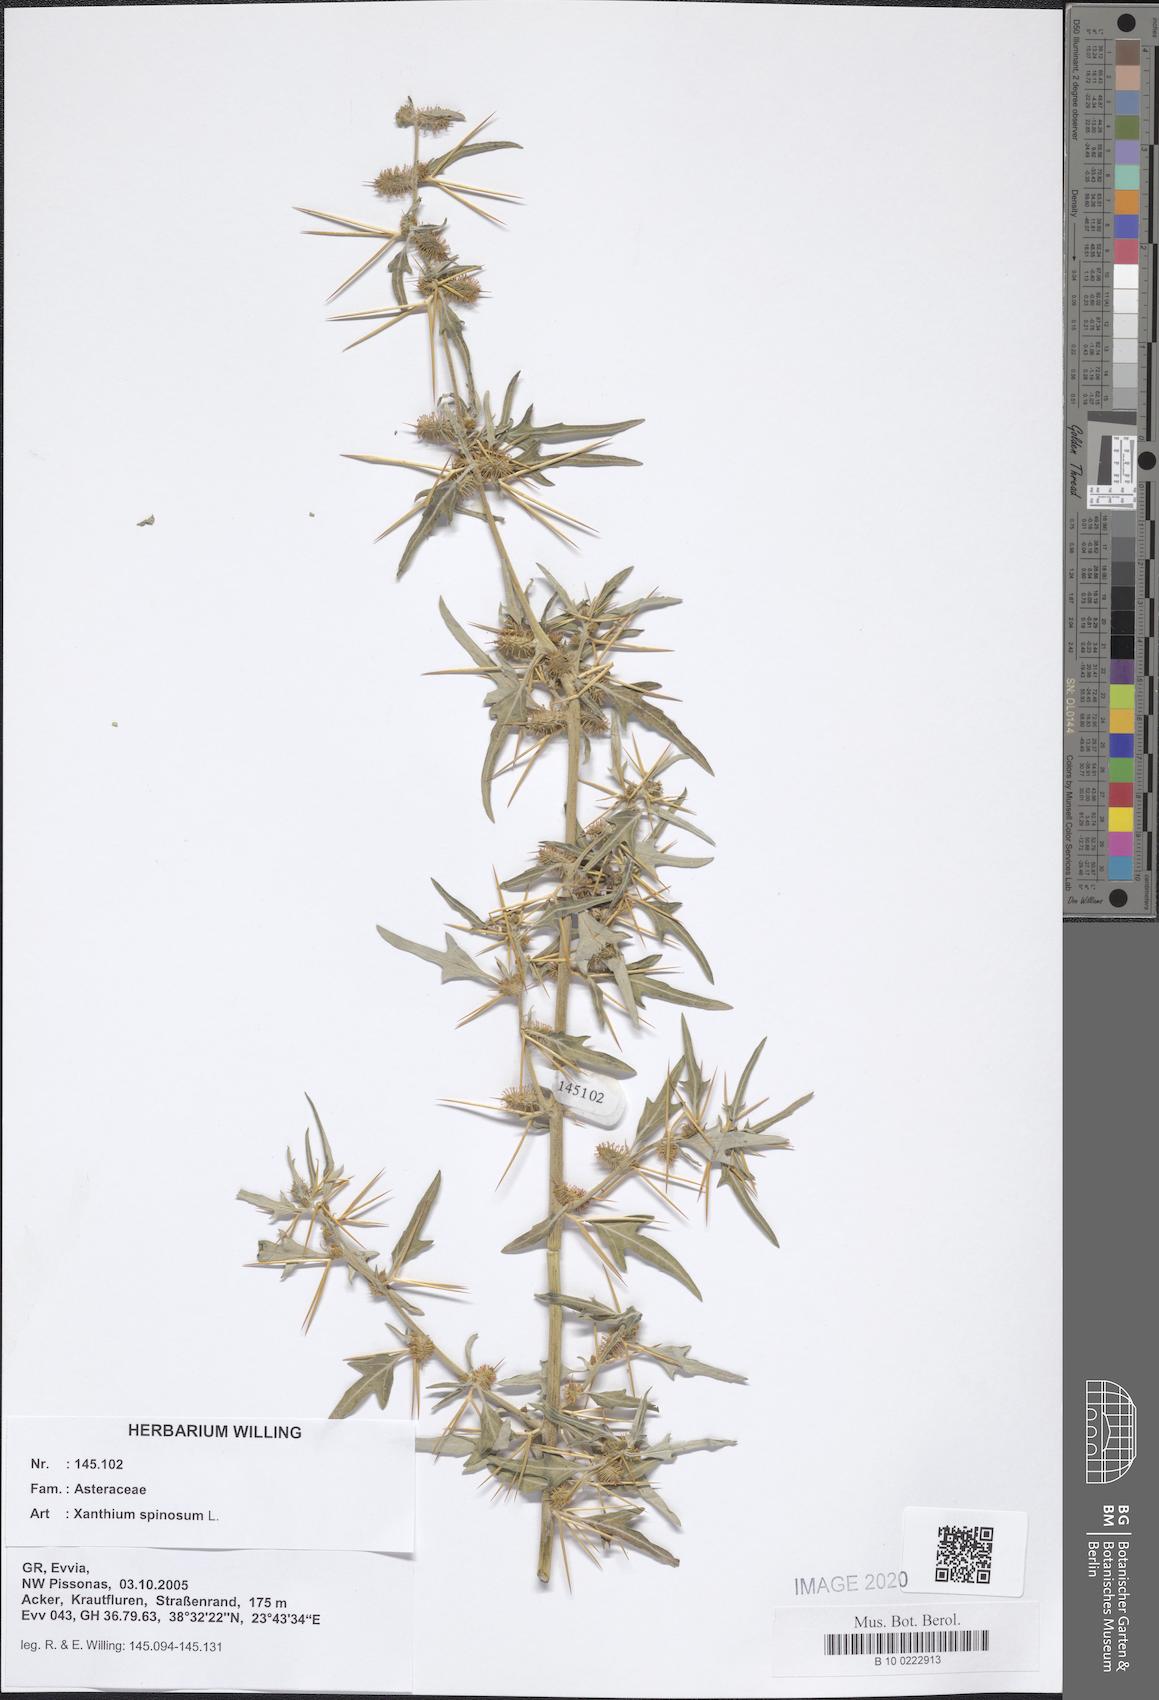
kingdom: Plantae
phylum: Tracheophyta
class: Magnoliopsida
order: Asterales
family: Asteraceae
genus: Xanthium
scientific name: Xanthium spinosum
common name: Spiny cocklebur
